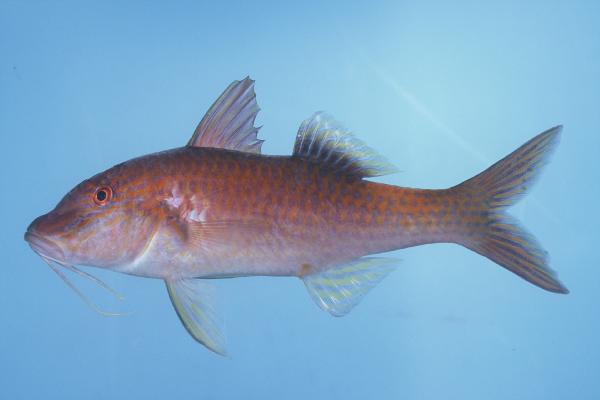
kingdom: Animalia
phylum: Chordata
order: Perciformes
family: Mullidae
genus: Parupeneus
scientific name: Parupeneus cyclostomus
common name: Goldsaddle goatfish
